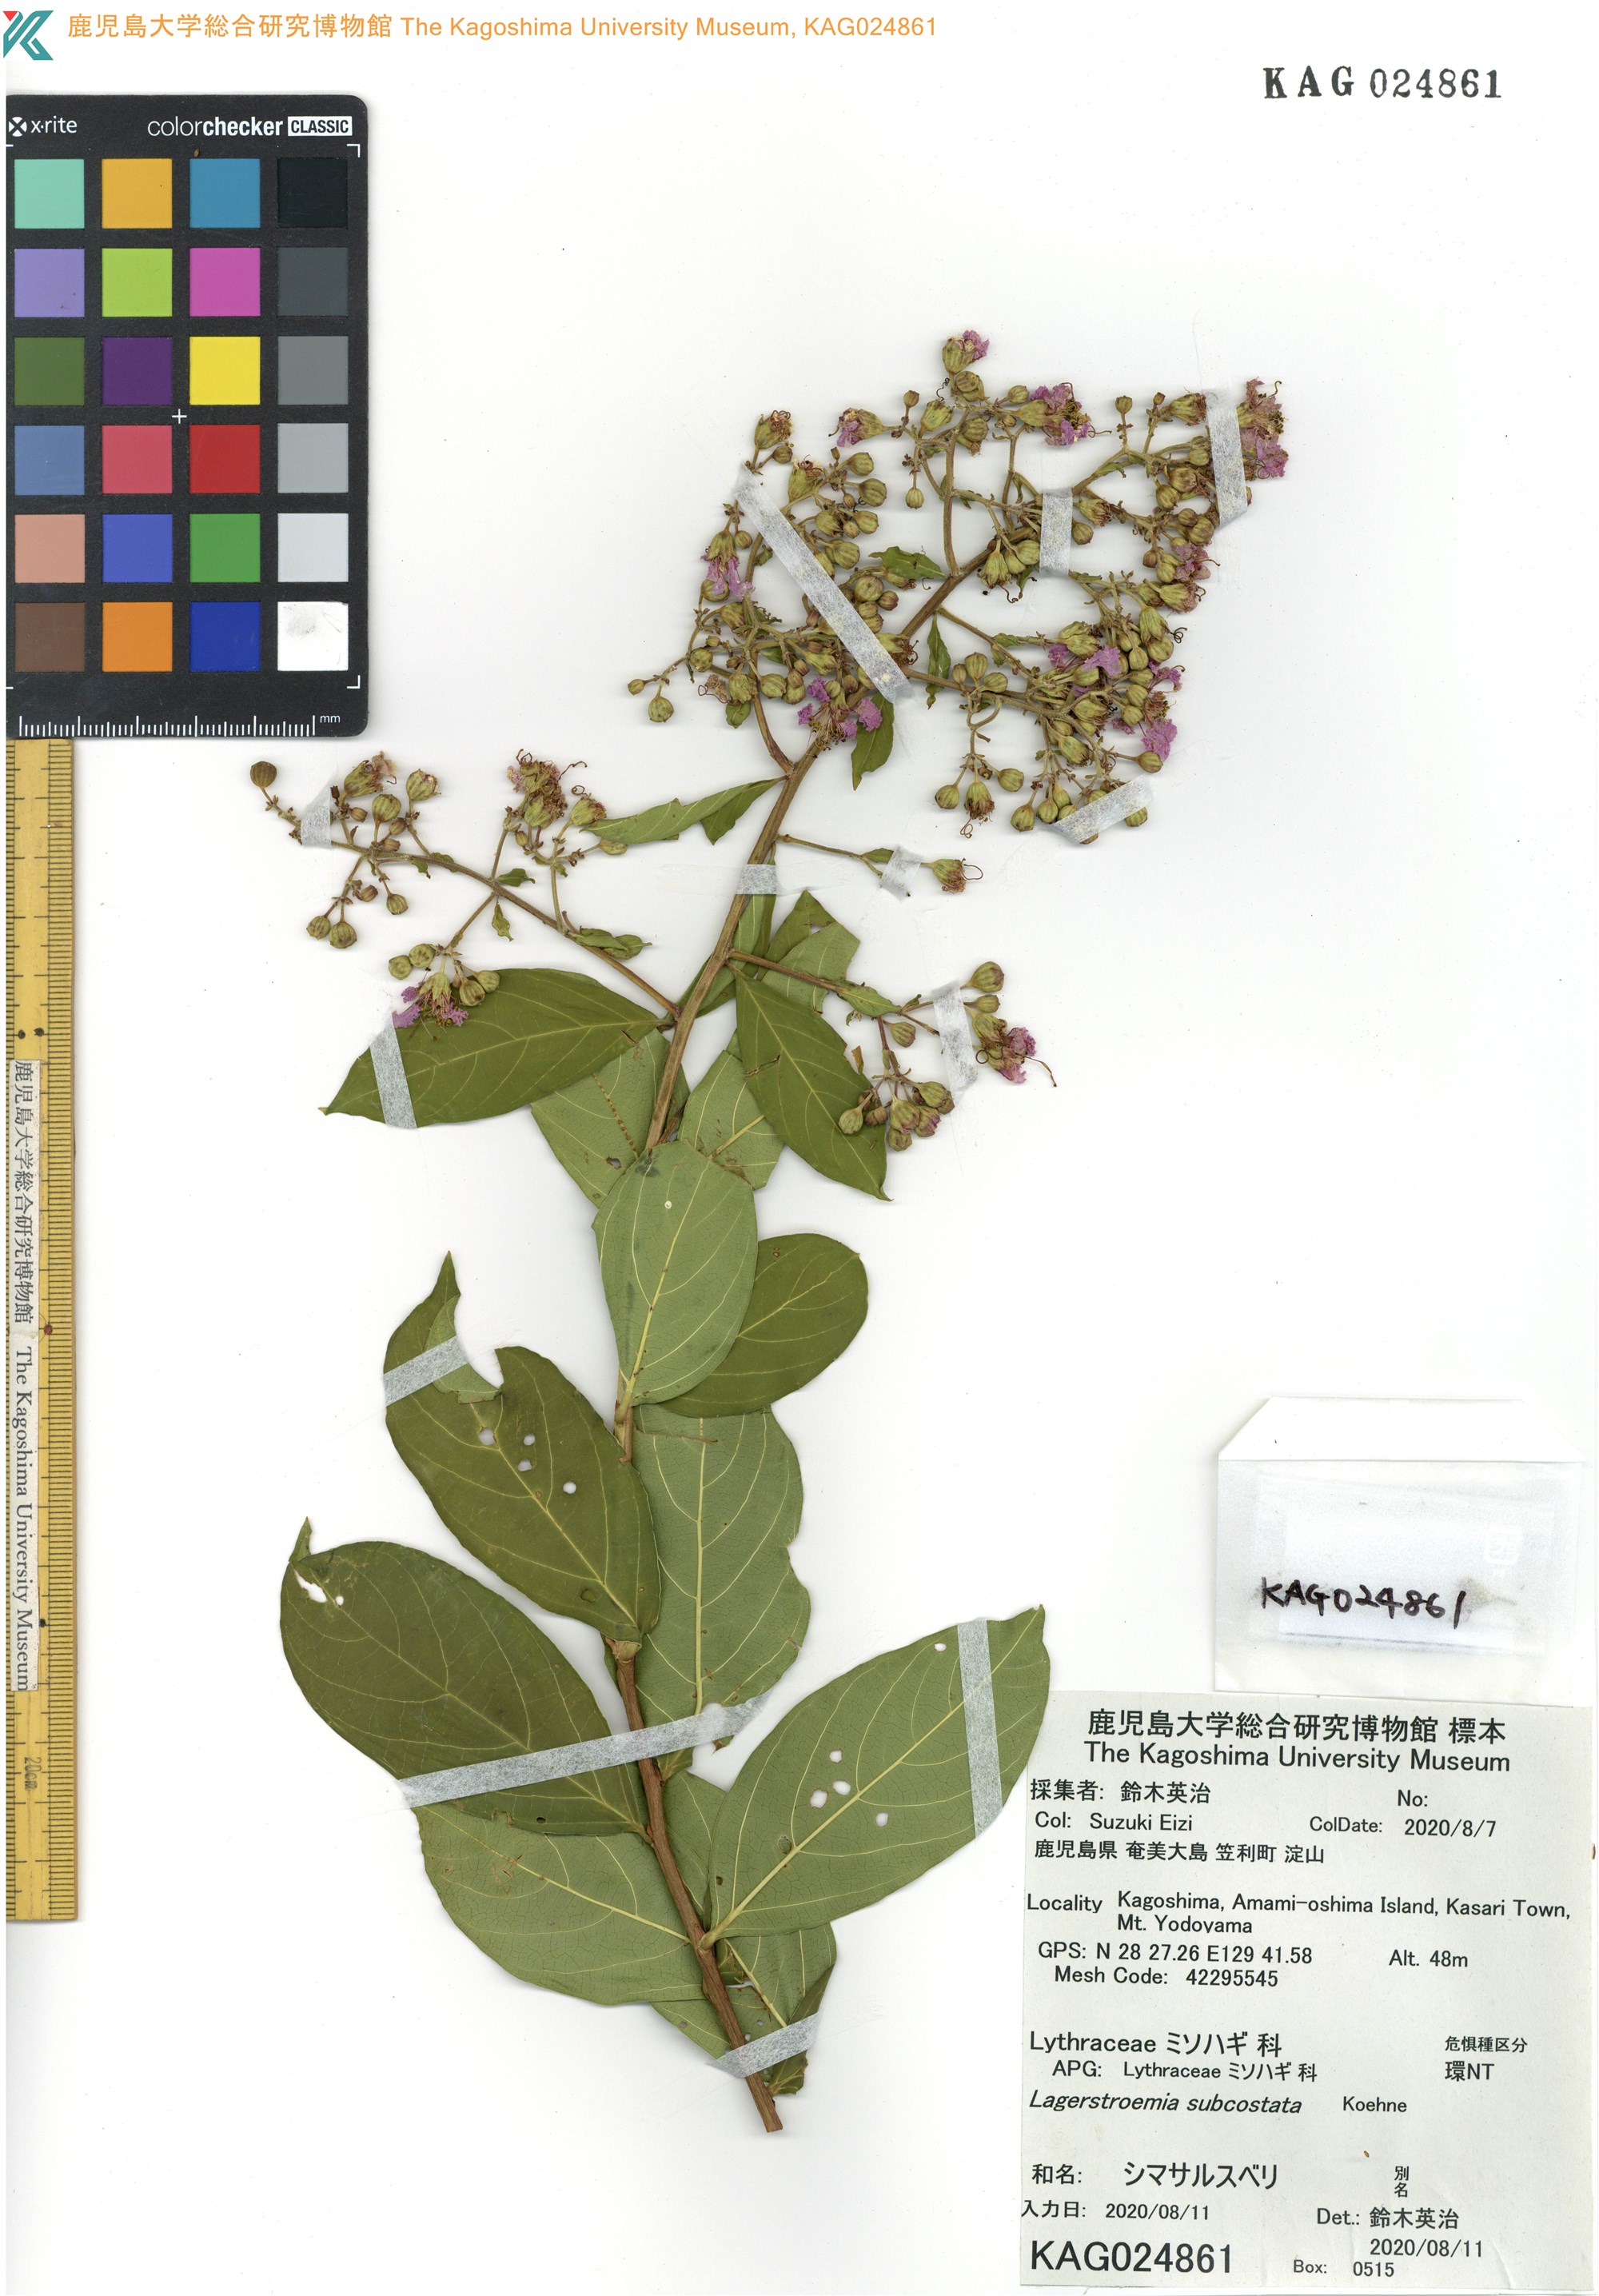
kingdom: Plantae
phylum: Tracheophyta
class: Magnoliopsida
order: Myrtales
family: Lythraceae
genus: Lagerstroemia
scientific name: Lagerstroemia subcostata
